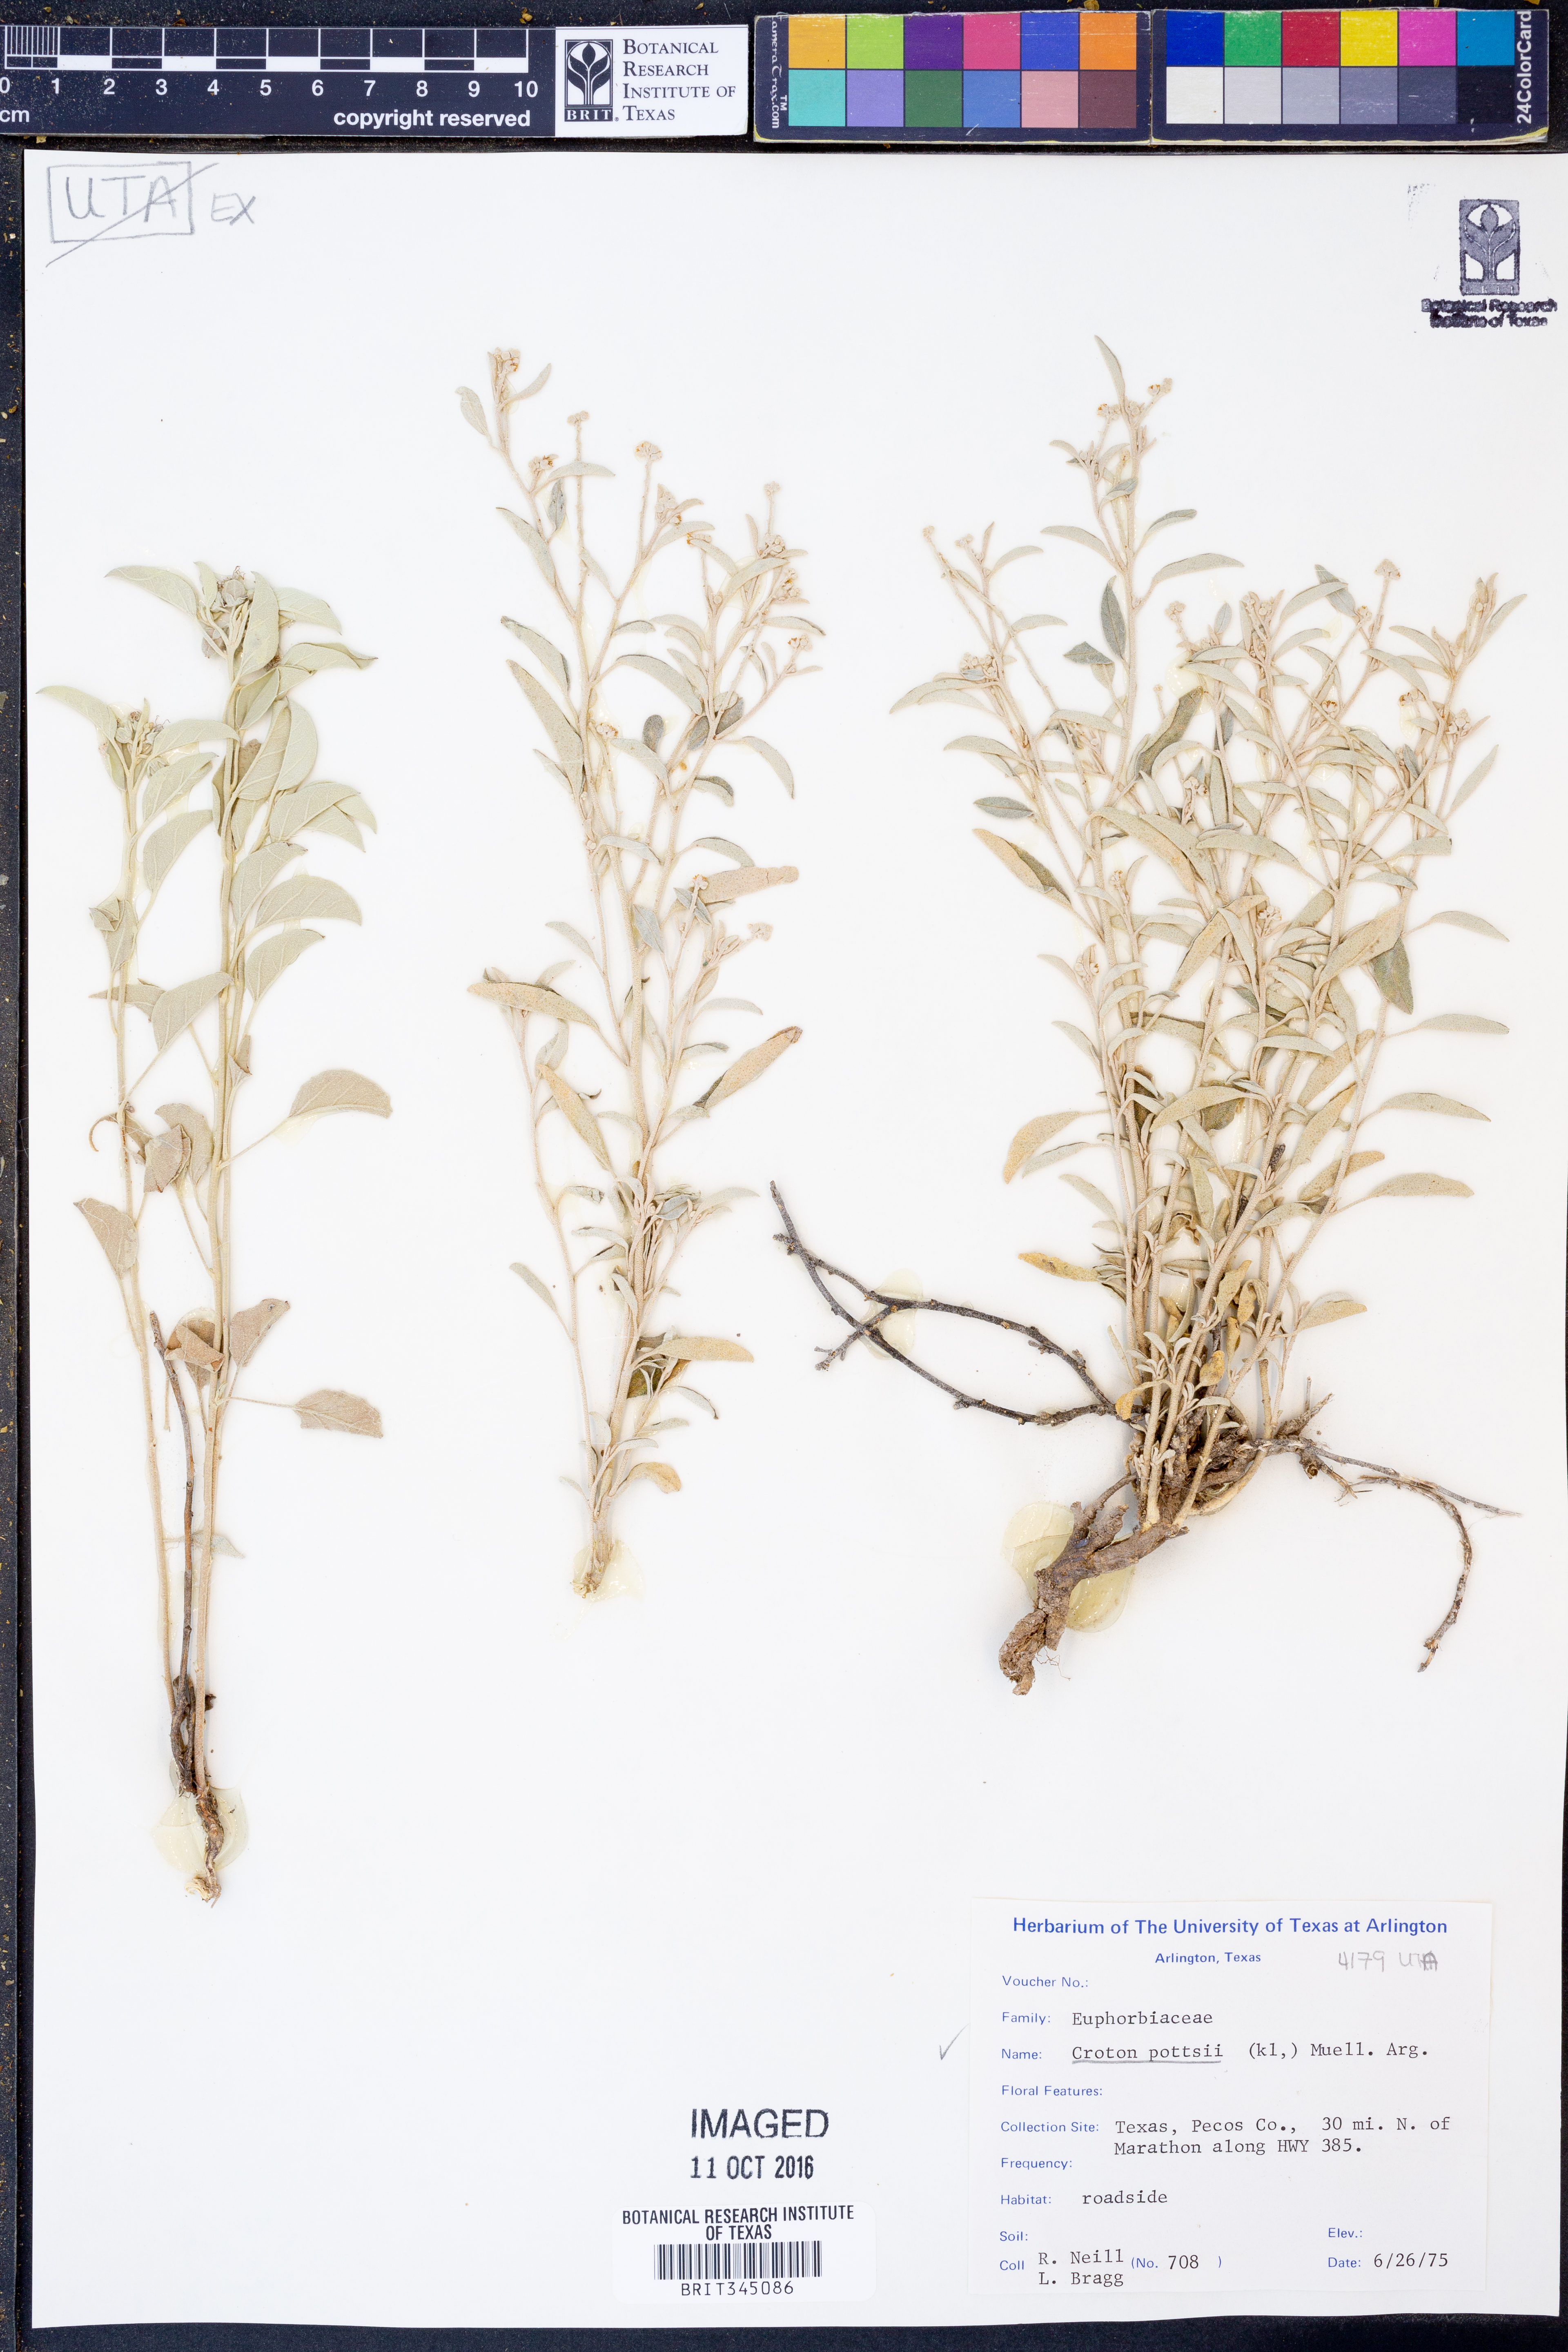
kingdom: Plantae
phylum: Tracheophyta
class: Magnoliopsida
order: Malpighiales
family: Euphorbiaceae
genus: Croton
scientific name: Croton pottsii
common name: Leatherweed
